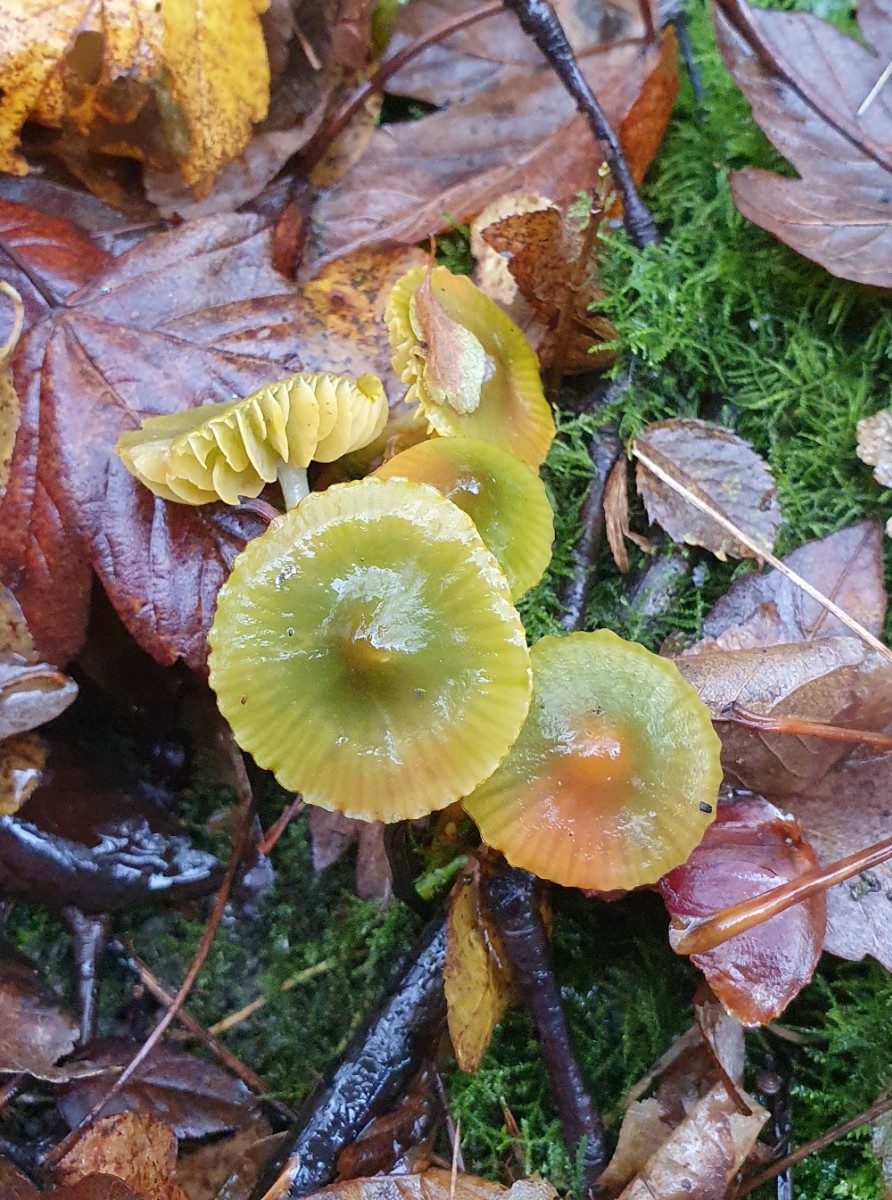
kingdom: Fungi
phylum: Basidiomycota
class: Agaricomycetes
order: Agaricales
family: Hygrophoraceae
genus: Gliophorus
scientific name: Gliophorus psittacinus
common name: papegøje-vokshat
